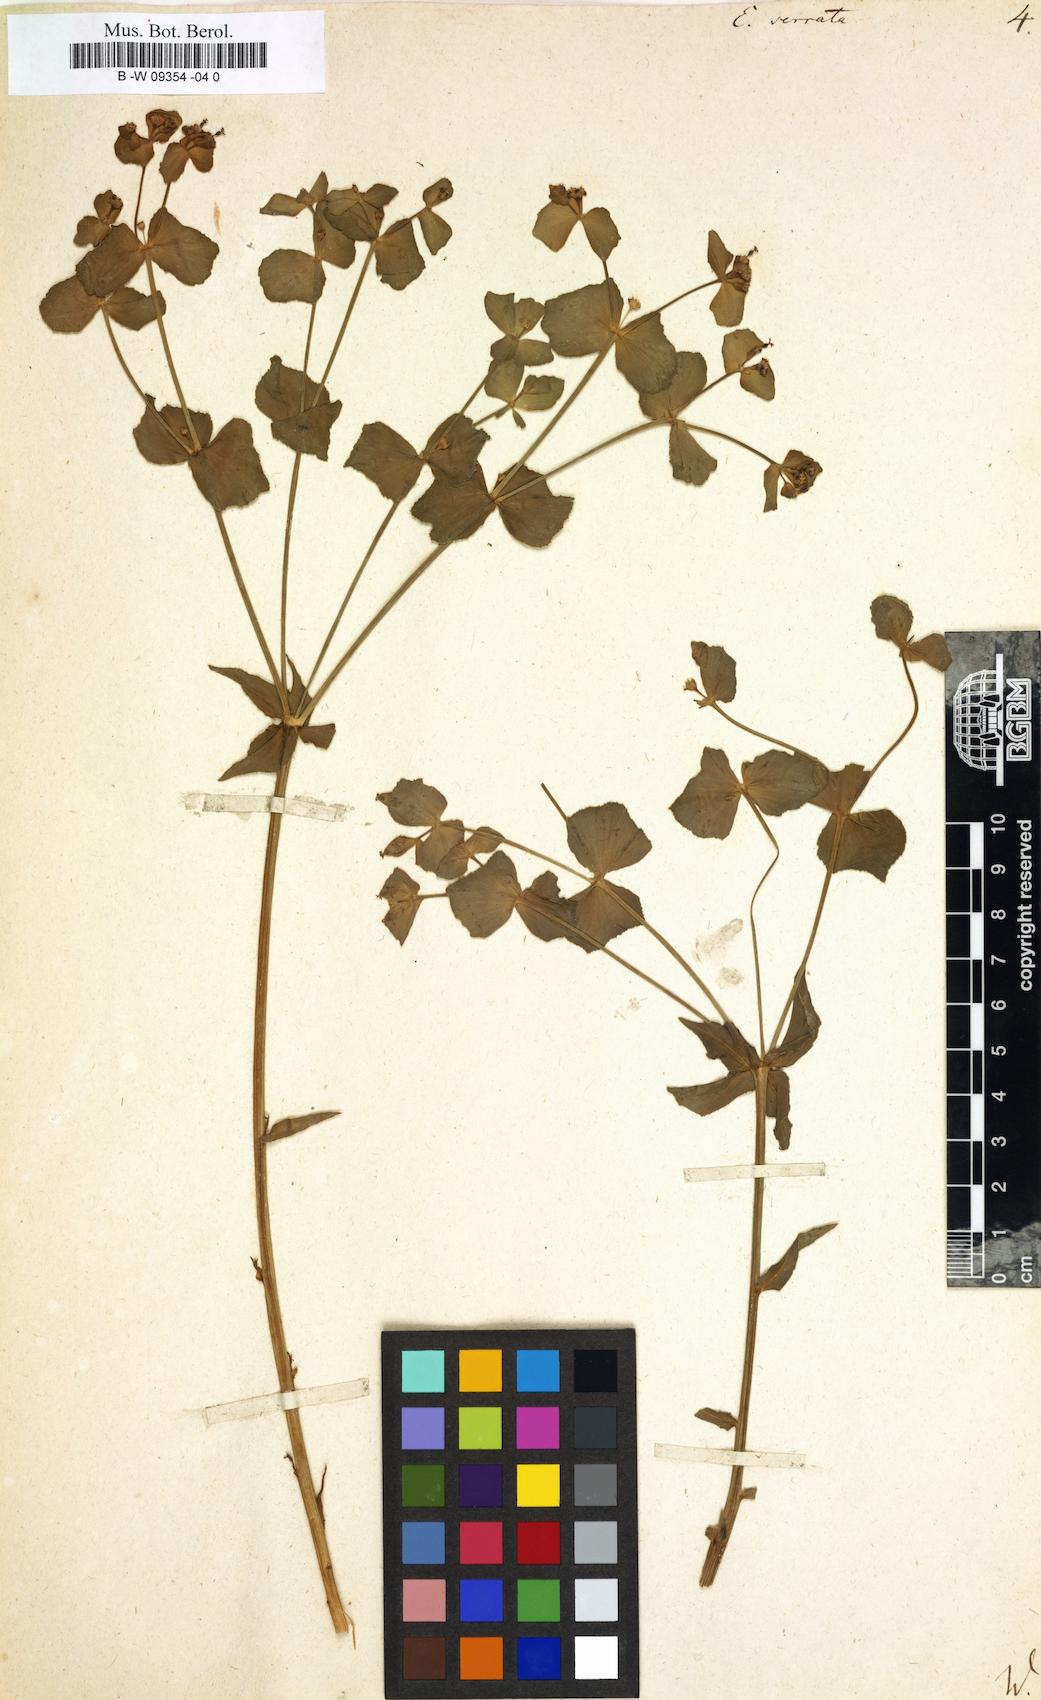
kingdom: Plantae
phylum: Tracheophyta
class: Magnoliopsida
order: Malpighiales
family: Euphorbiaceae
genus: Euphorbia
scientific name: Euphorbia serrata
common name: Serrate spurge
